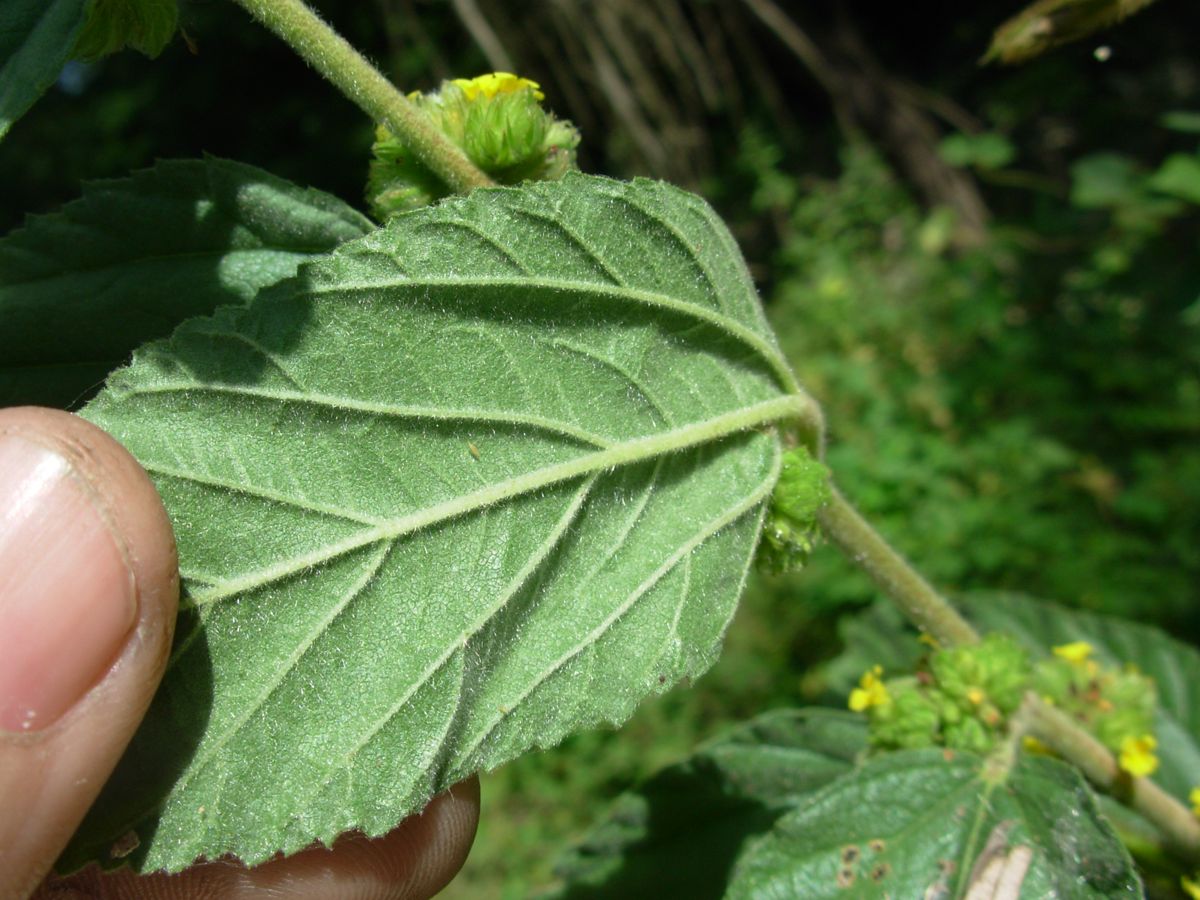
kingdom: Plantae
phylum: Tracheophyta
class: Magnoliopsida
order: Malvales
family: Malvaceae
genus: Waltheria
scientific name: Waltheria indica
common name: Leather-coat
